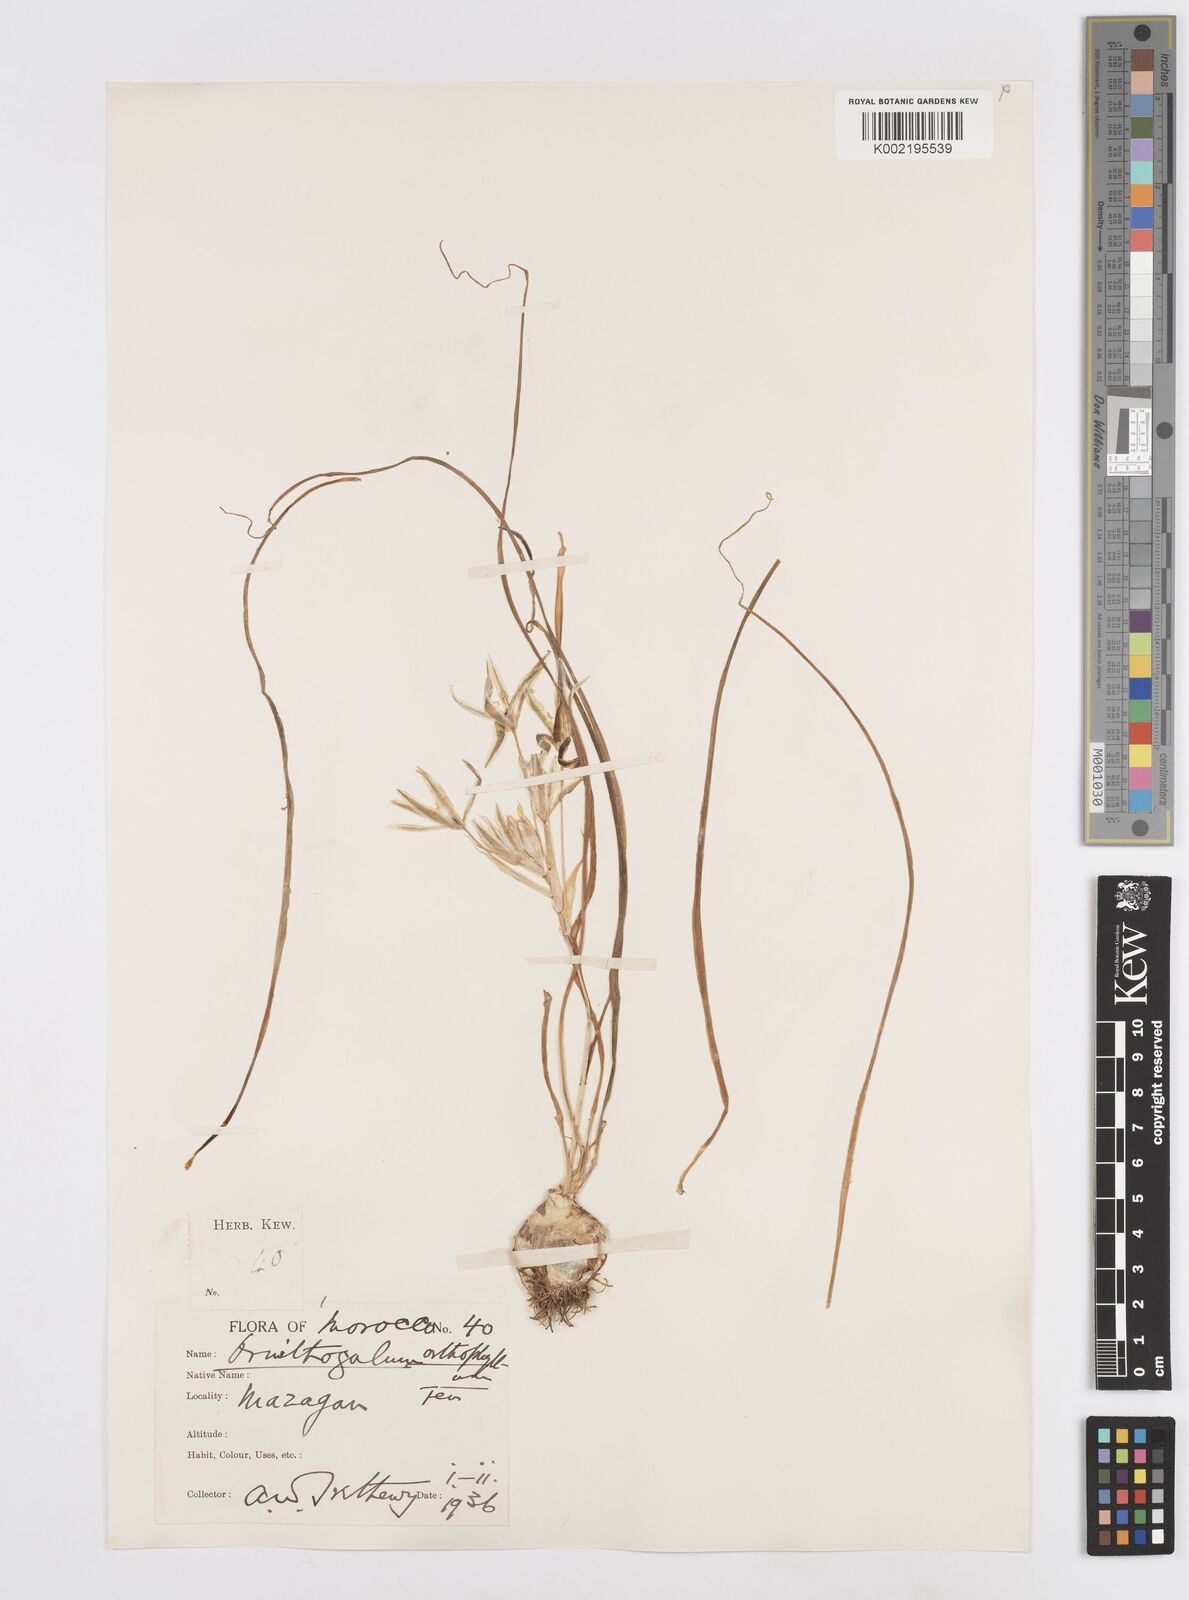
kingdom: Plantae
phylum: Tracheophyta
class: Liliopsida
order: Asparagales
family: Asparagaceae
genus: Ornithogalum
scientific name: Ornithogalum baeticum
